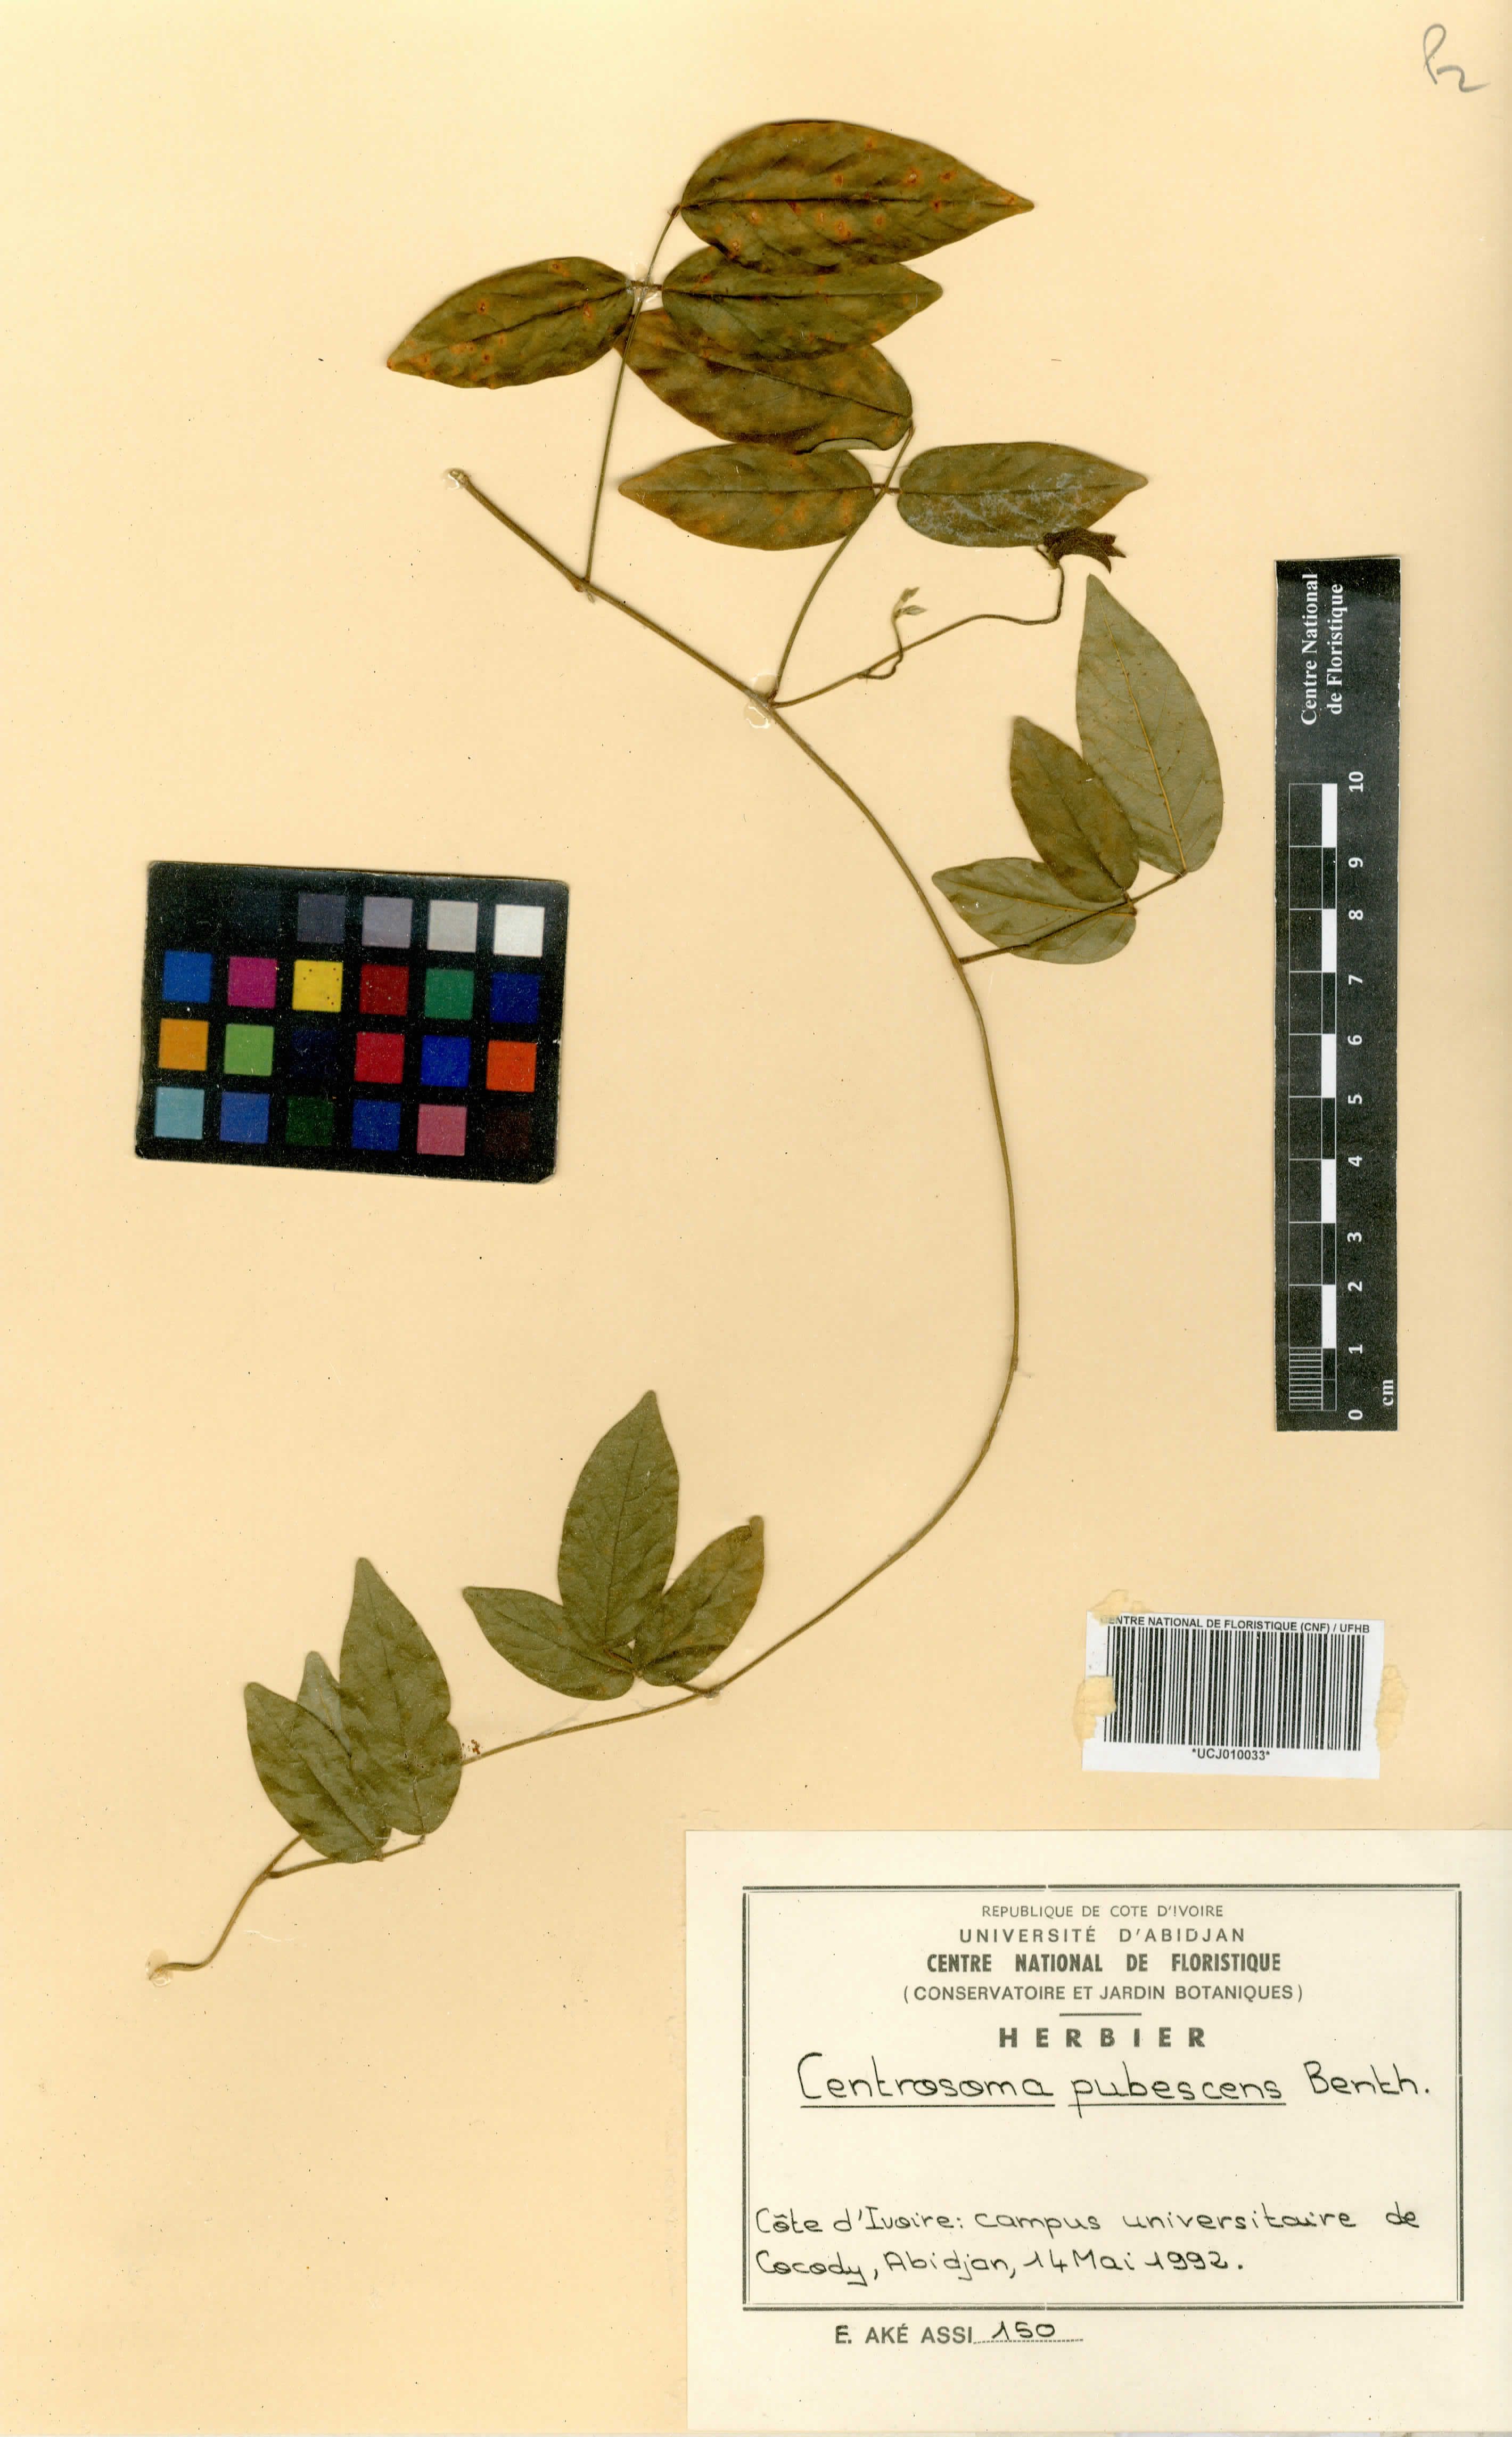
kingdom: Plantae
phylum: Tracheophyta
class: Magnoliopsida
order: Fabales
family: Fabaceae
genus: Centrosema
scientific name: Centrosema pubescens
